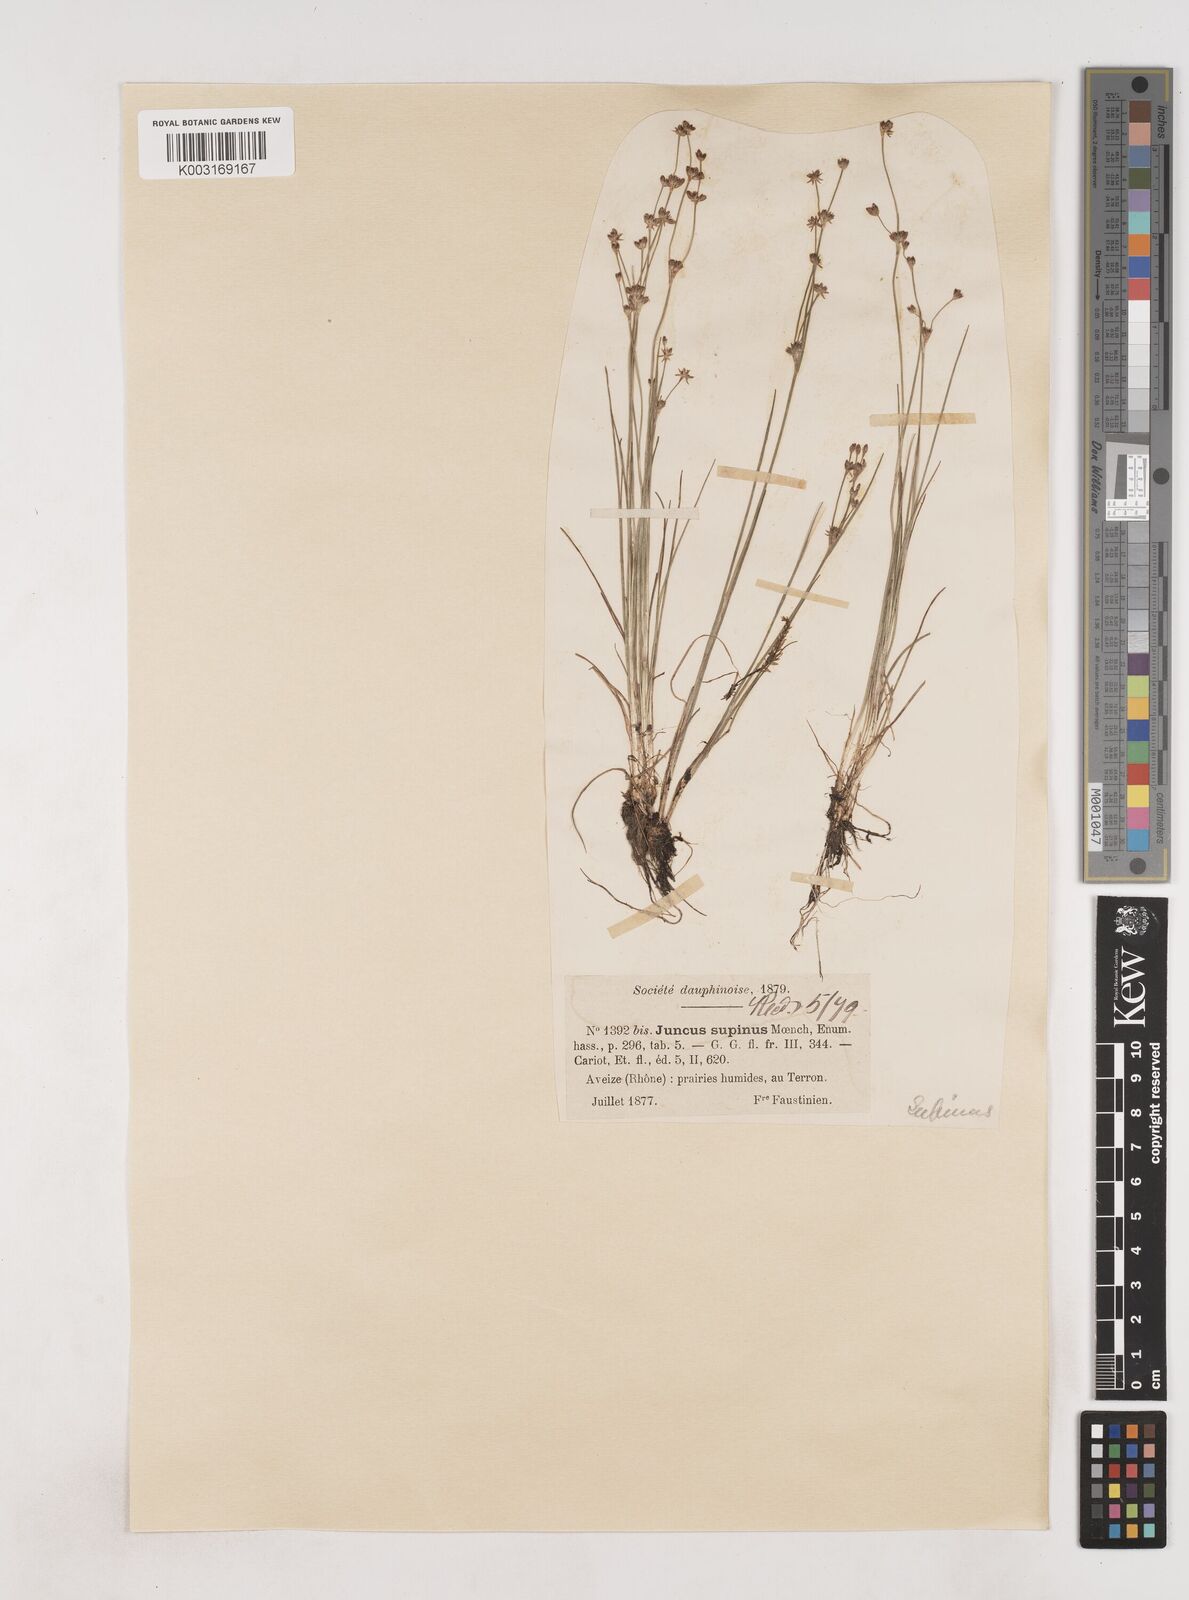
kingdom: Plantae
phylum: Tracheophyta
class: Liliopsida
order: Poales
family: Juncaceae
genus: Juncus
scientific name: Juncus bulbosus
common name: Bulbous rush
